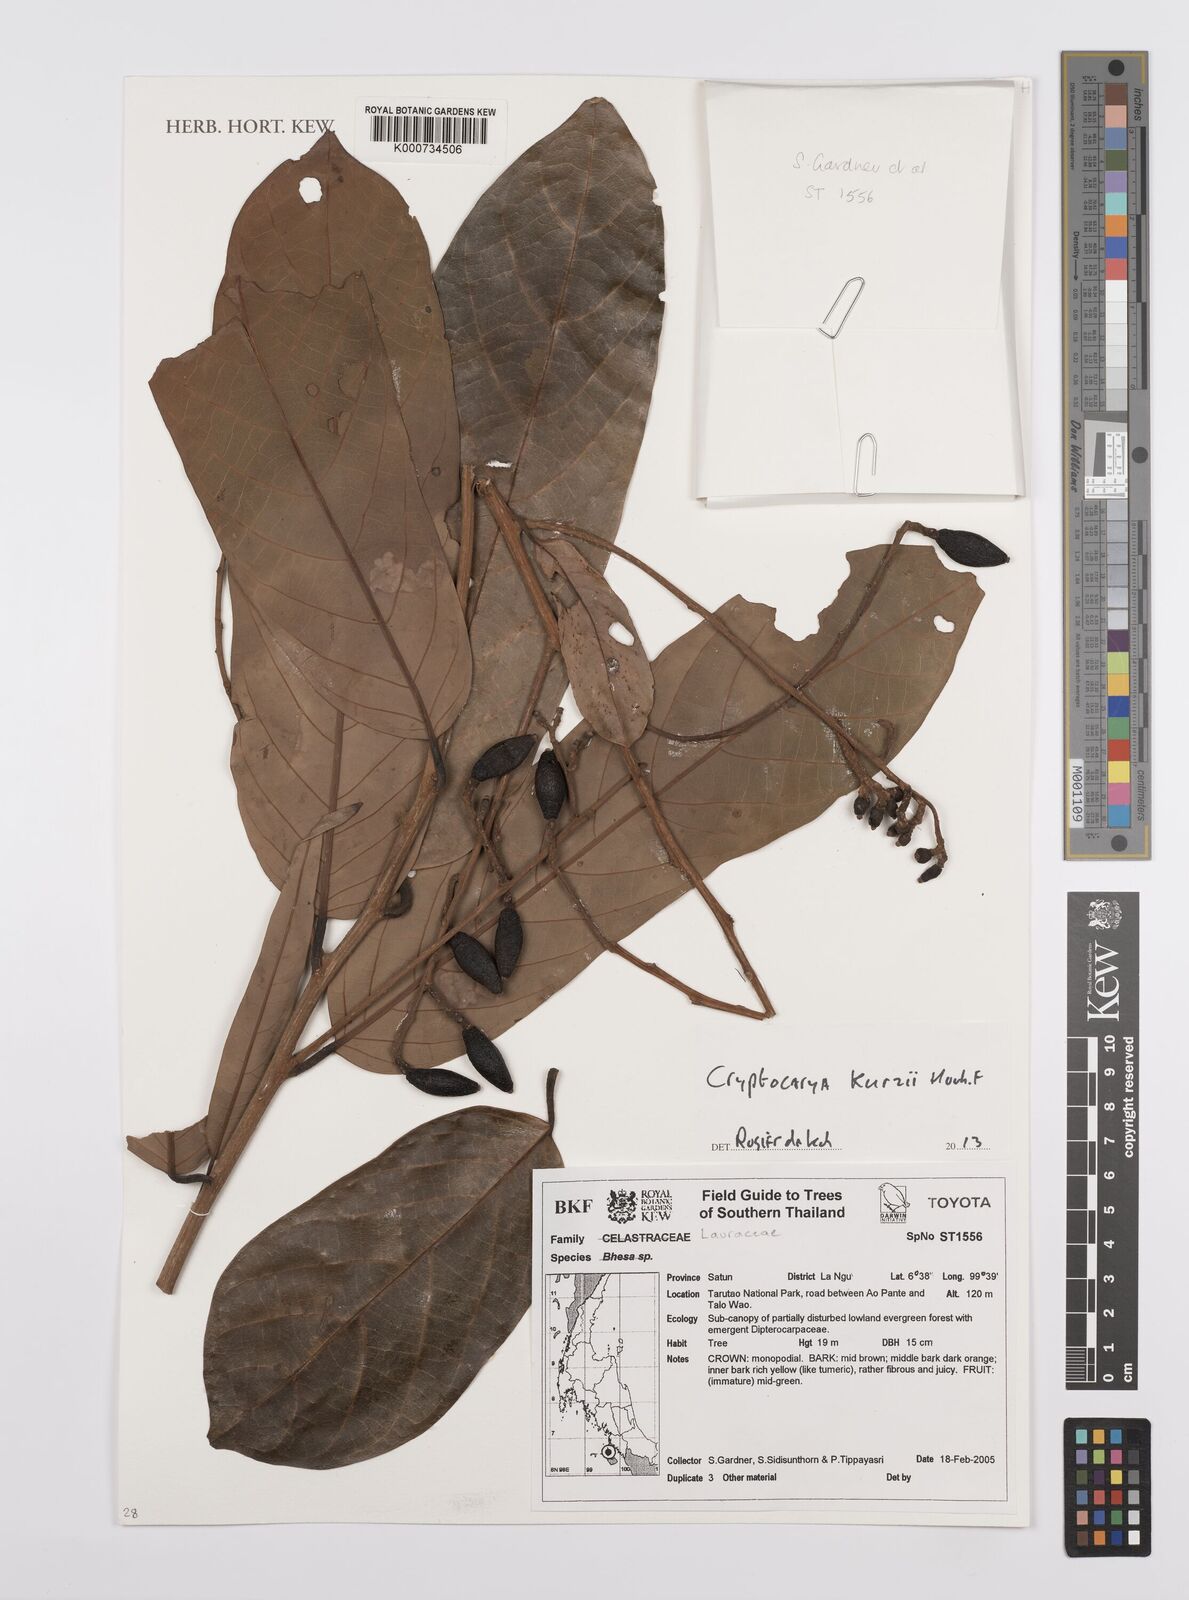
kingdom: Plantae
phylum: Tracheophyta
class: Magnoliopsida
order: Laurales
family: Lauraceae
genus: Cryptocarya
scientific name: Cryptocarya kurzii
